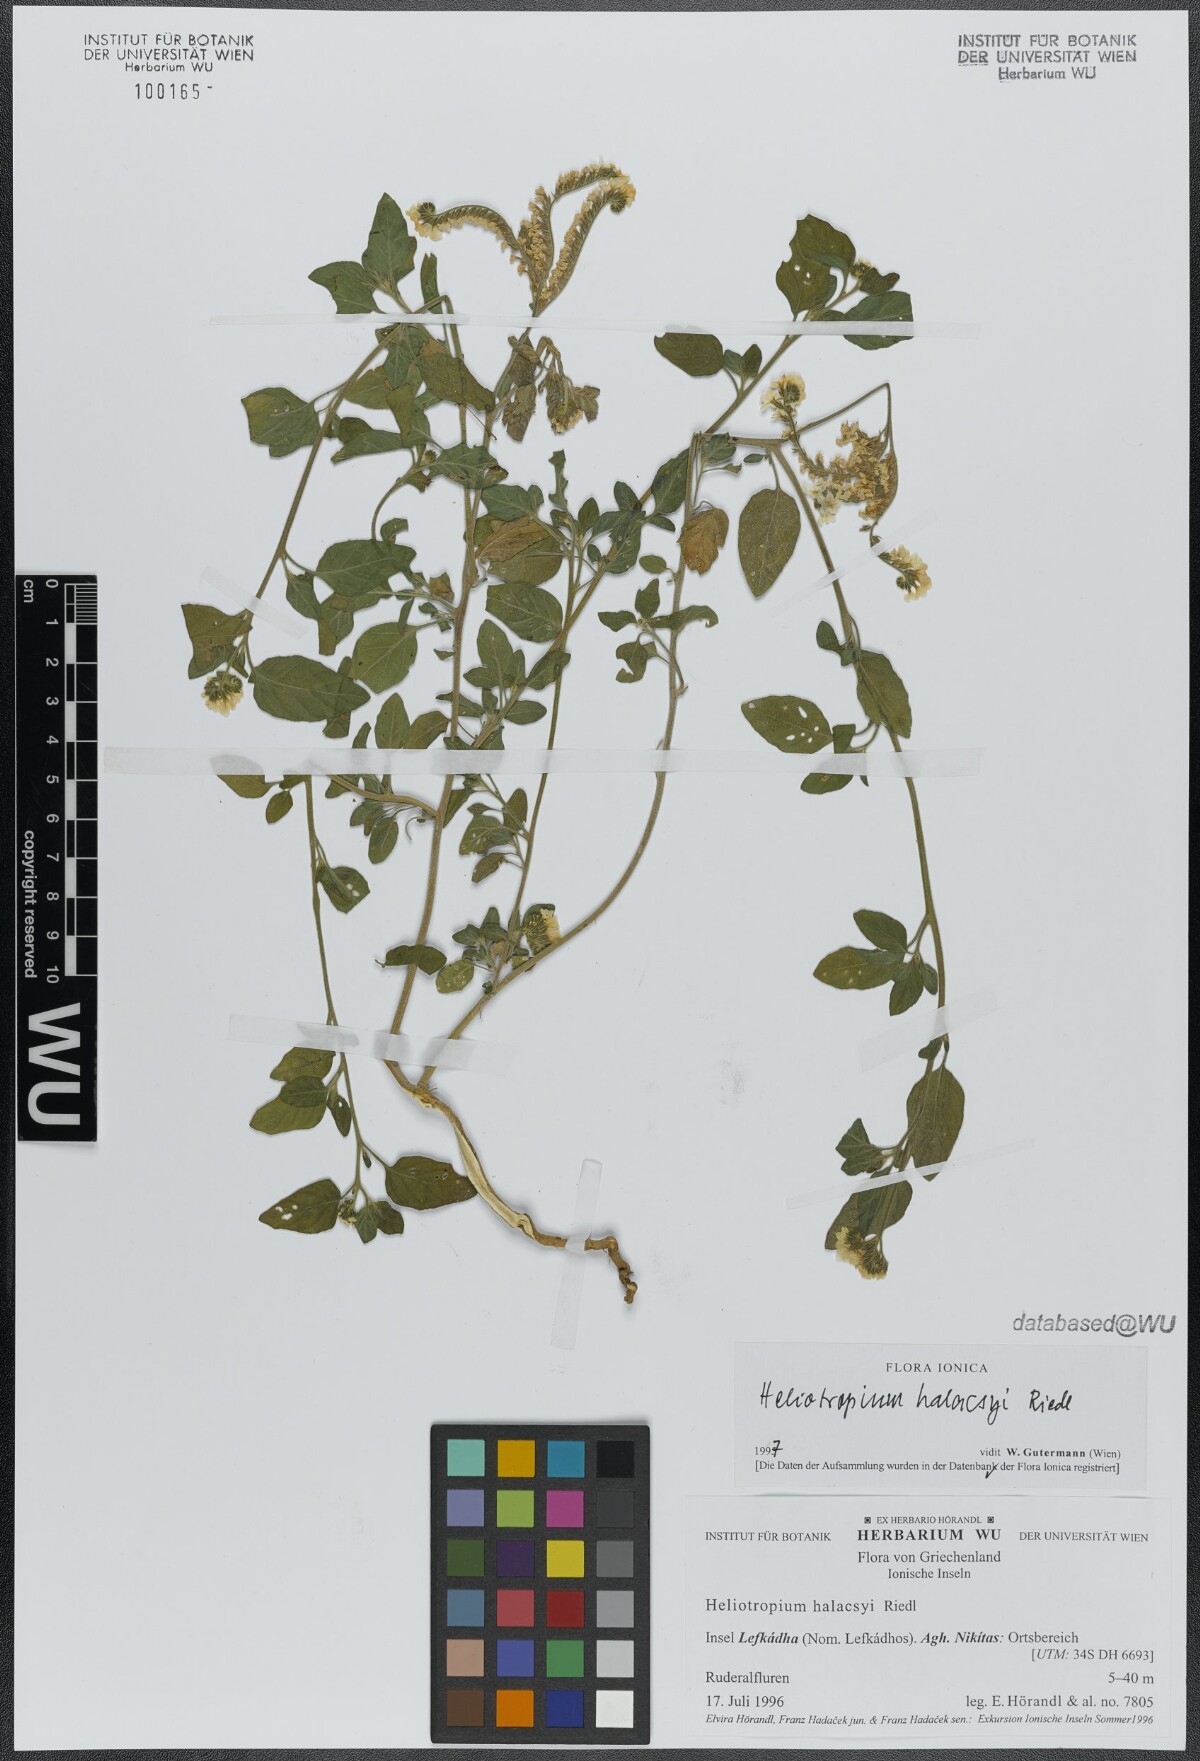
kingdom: Plantae
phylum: Tracheophyta
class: Magnoliopsida
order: Boraginales
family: Heliotropiaceae
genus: Heliotropium
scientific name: Heliotropium halacsyi
